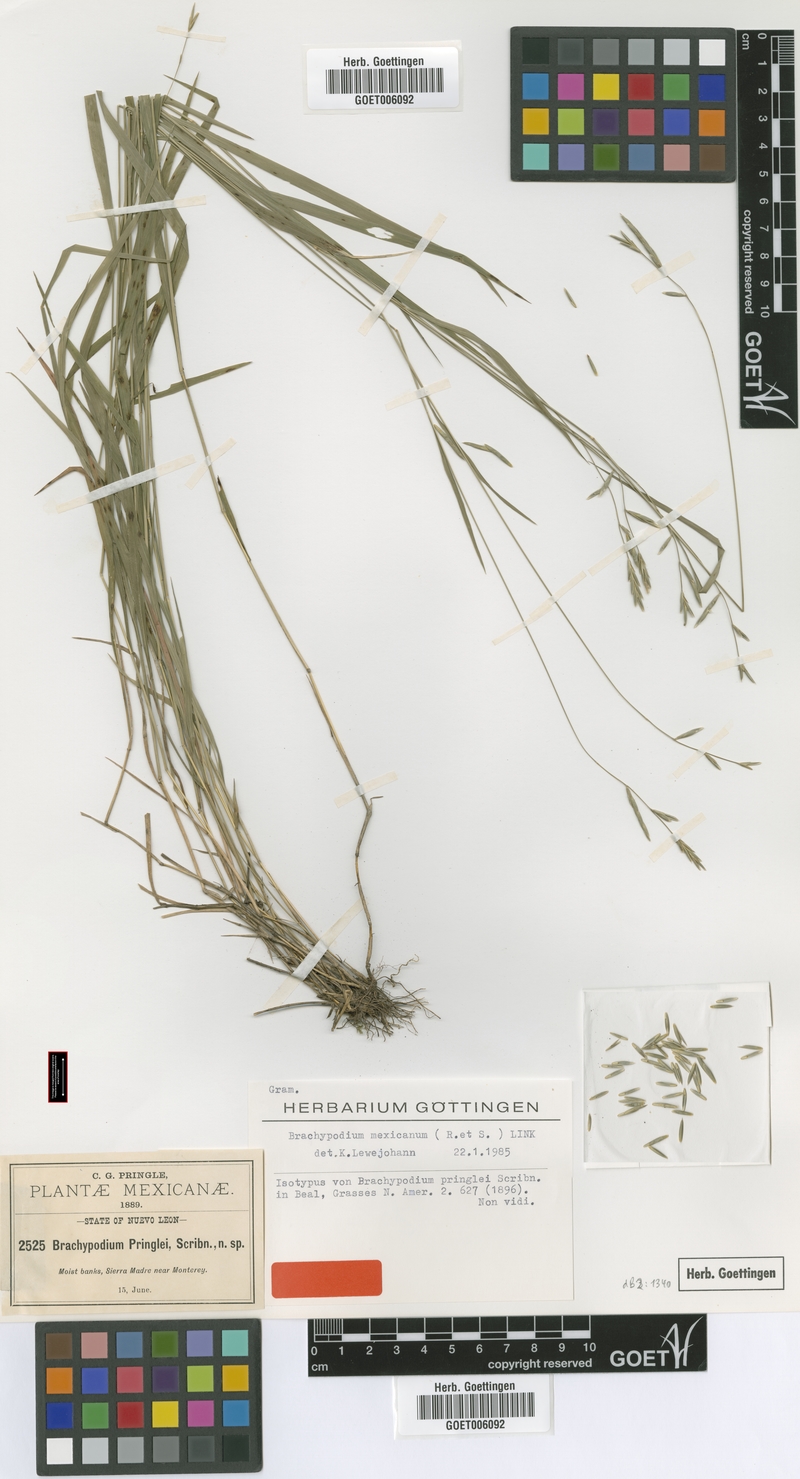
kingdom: Plantae
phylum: Tracheophyta
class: Liliopsida
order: Poales
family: Poaceae
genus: Brachypodium
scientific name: Brachypodium mexicanum
